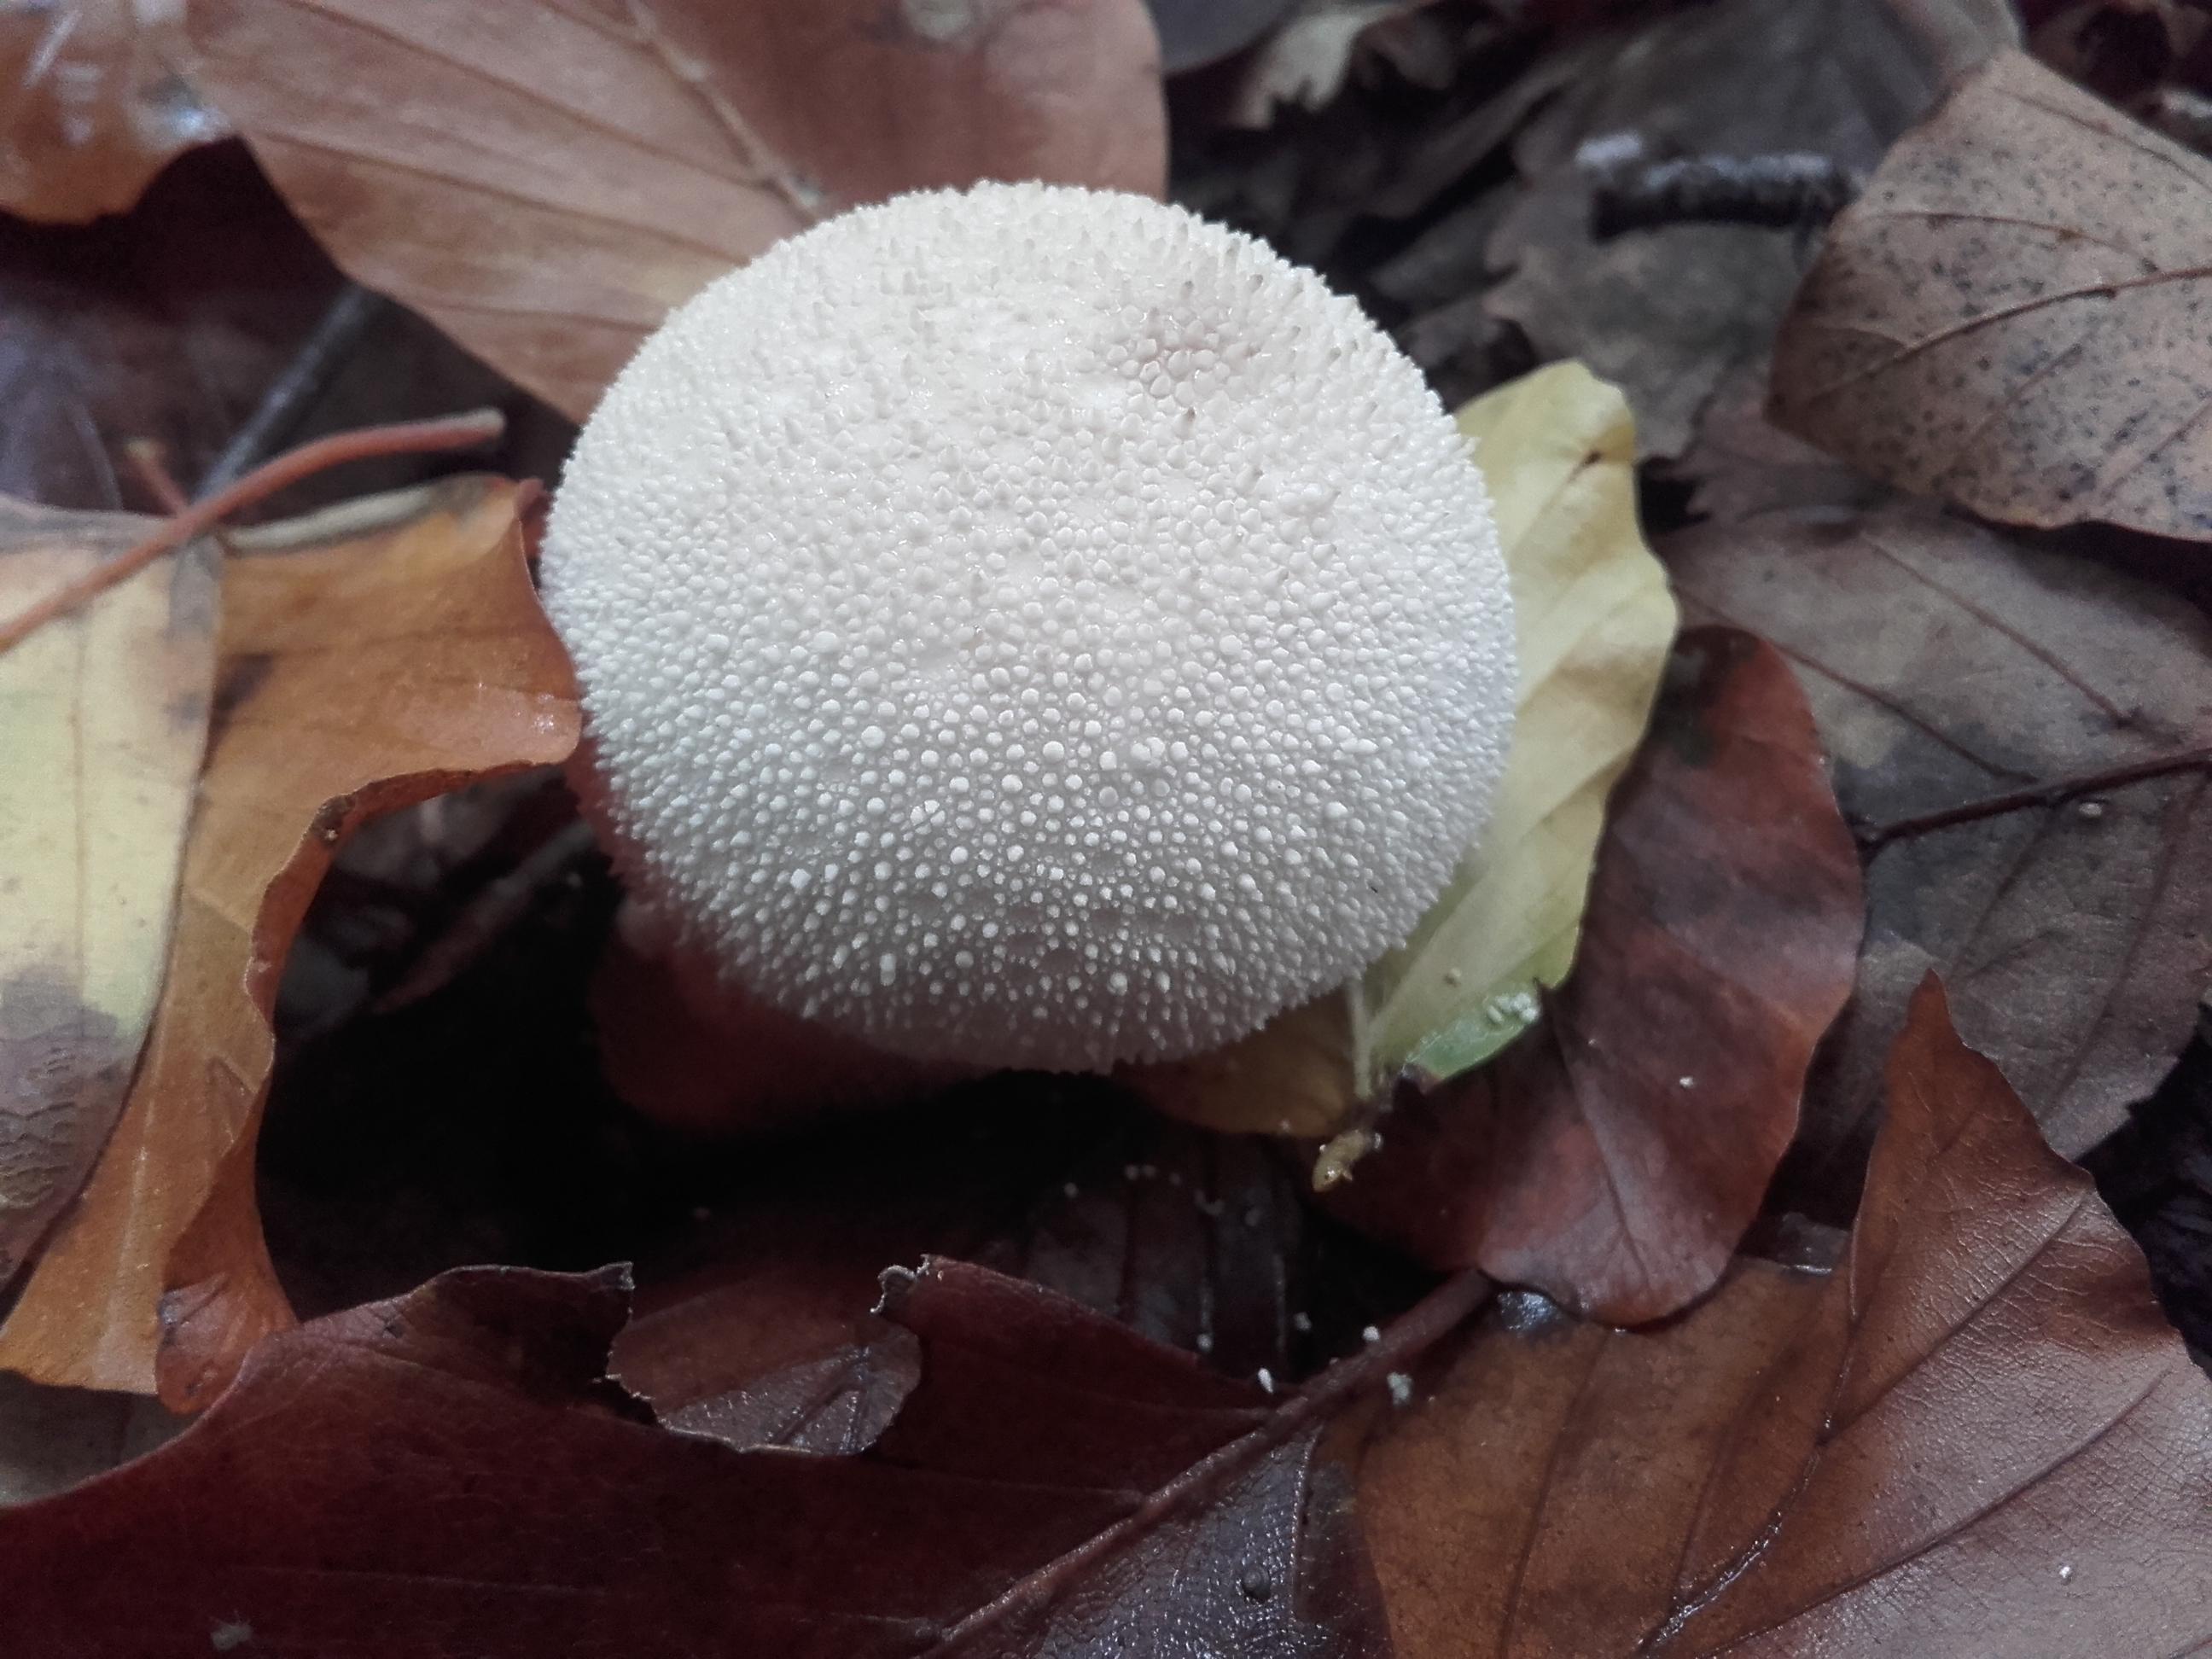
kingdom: Fungi
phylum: Basidiomycota
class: Agaricomycetes
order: Agaricales
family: Lycoperdaceae
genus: Lycoperdon
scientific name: Lycoperdon perlatum
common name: krystal-støvbold
